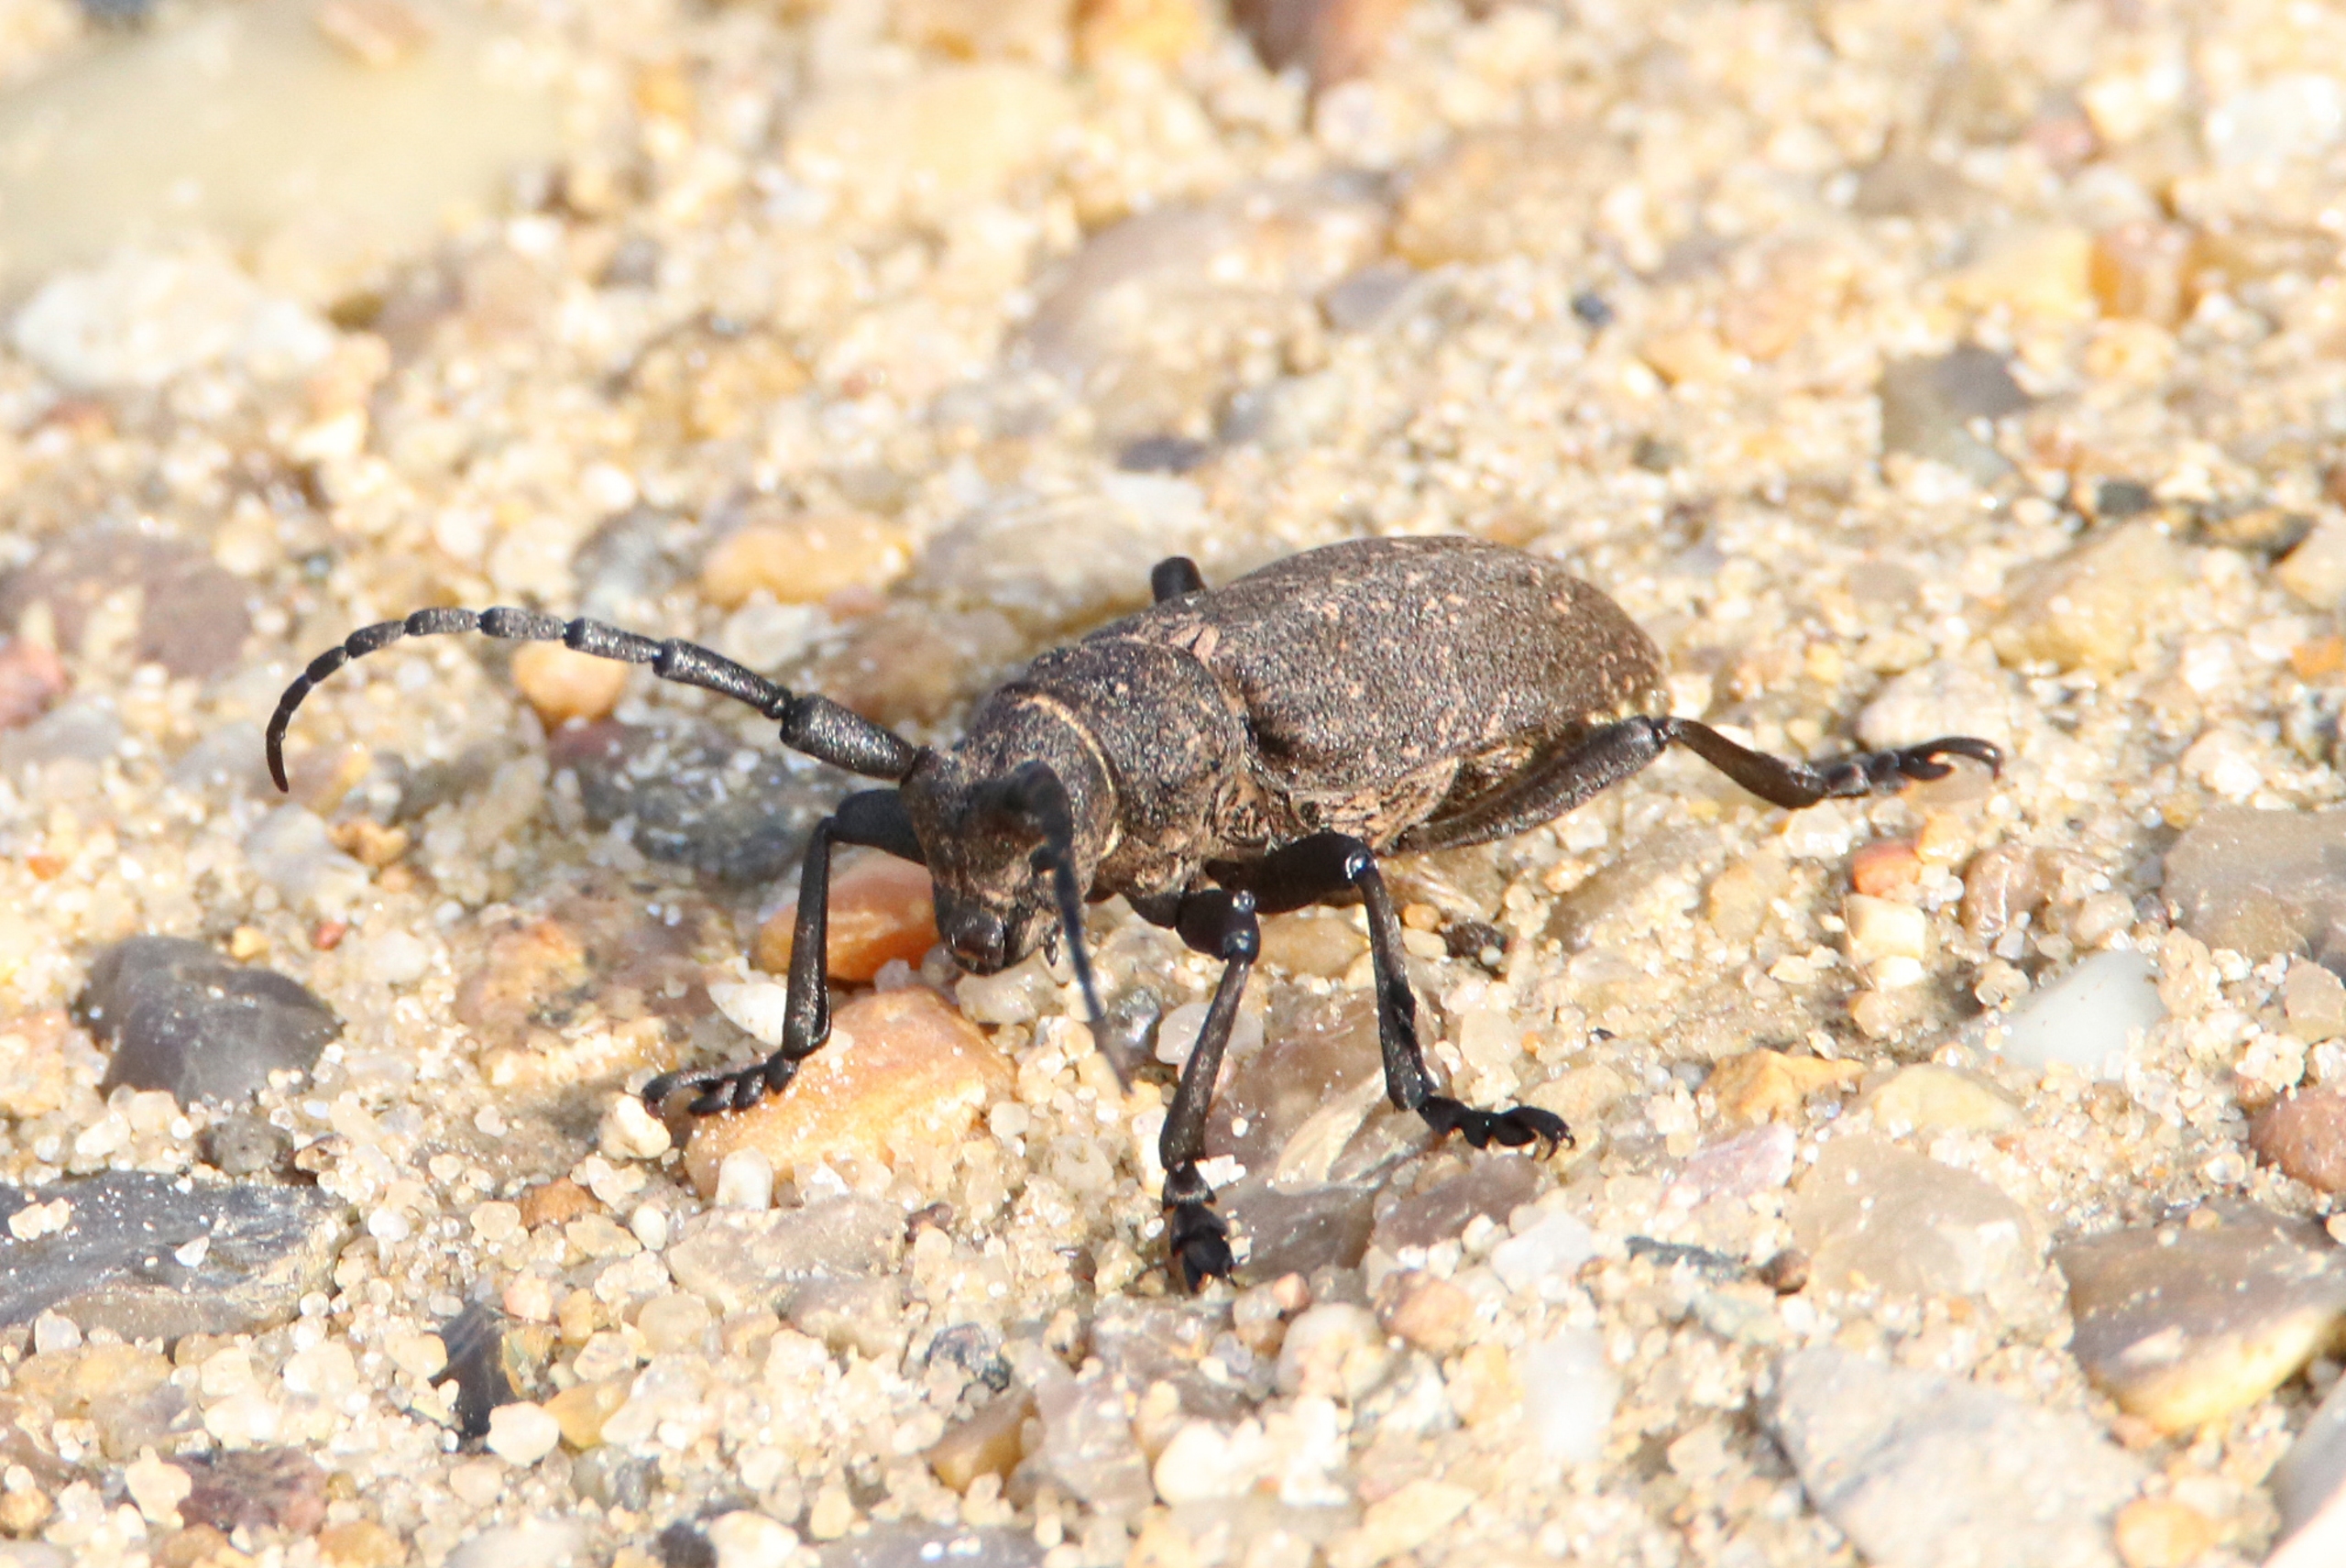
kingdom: Animalia
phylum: Arthropoda
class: Insecta
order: Coleoptera
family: Cerambycidae
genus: Lamia
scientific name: Lamia textor
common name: Væver
